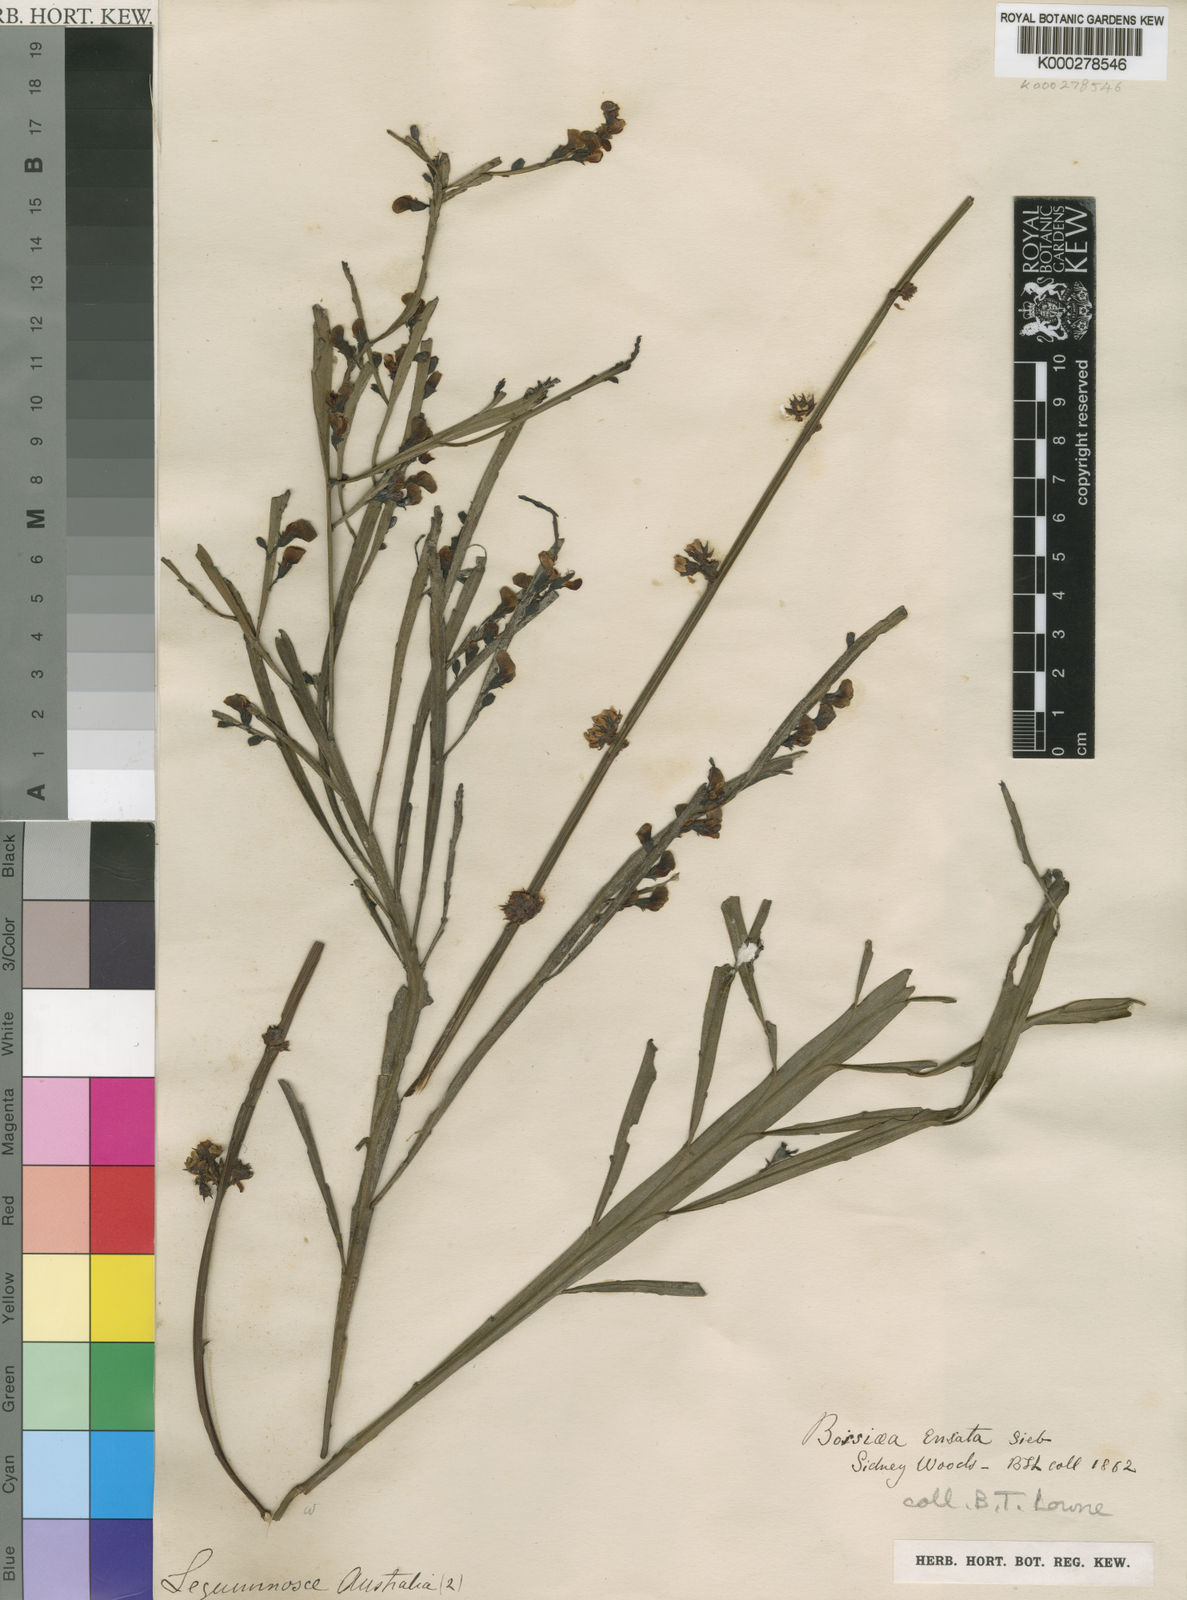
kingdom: Plantae
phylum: Tracheophyta
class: Magnoliopsida
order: Fabales
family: Fabaceae
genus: Bossiaea
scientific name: Bossiaea ensata
